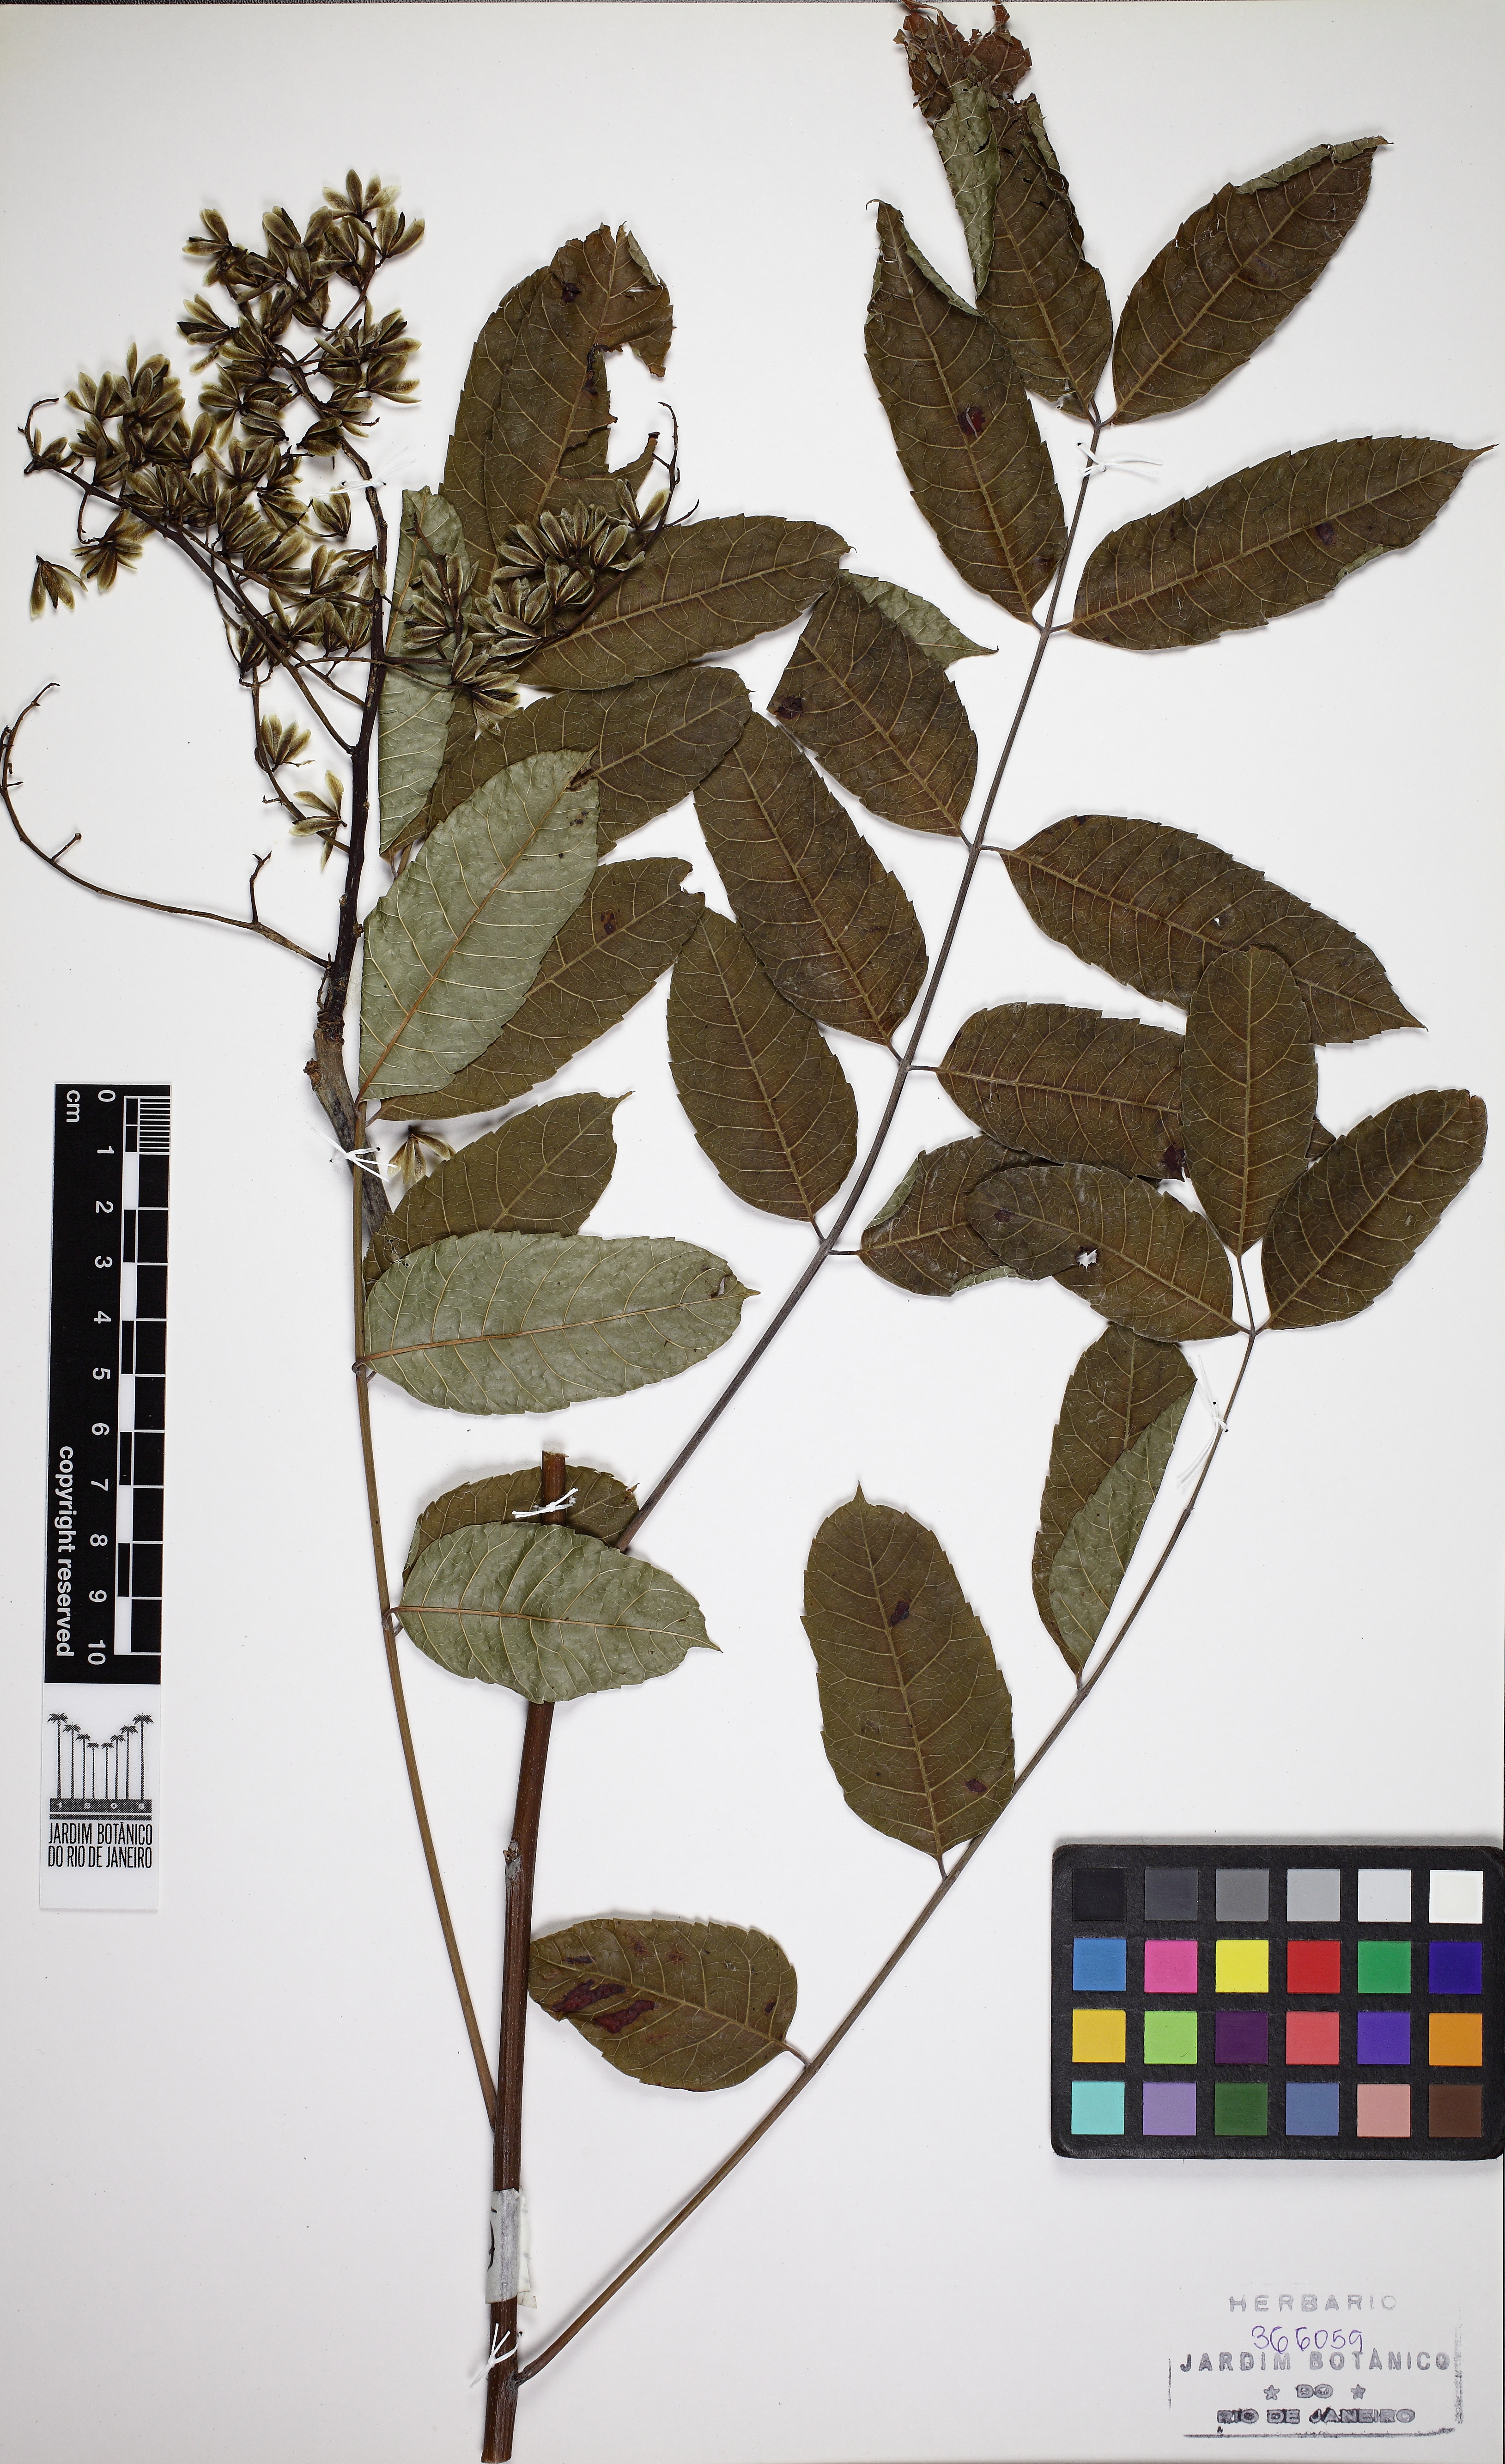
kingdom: Plantae
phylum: Tracheophyta
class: Magnoliopsida
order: Sapindales
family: Anacardiaceae
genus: Astronium
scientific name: Astronium fraxinifolium
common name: Tigerwood
